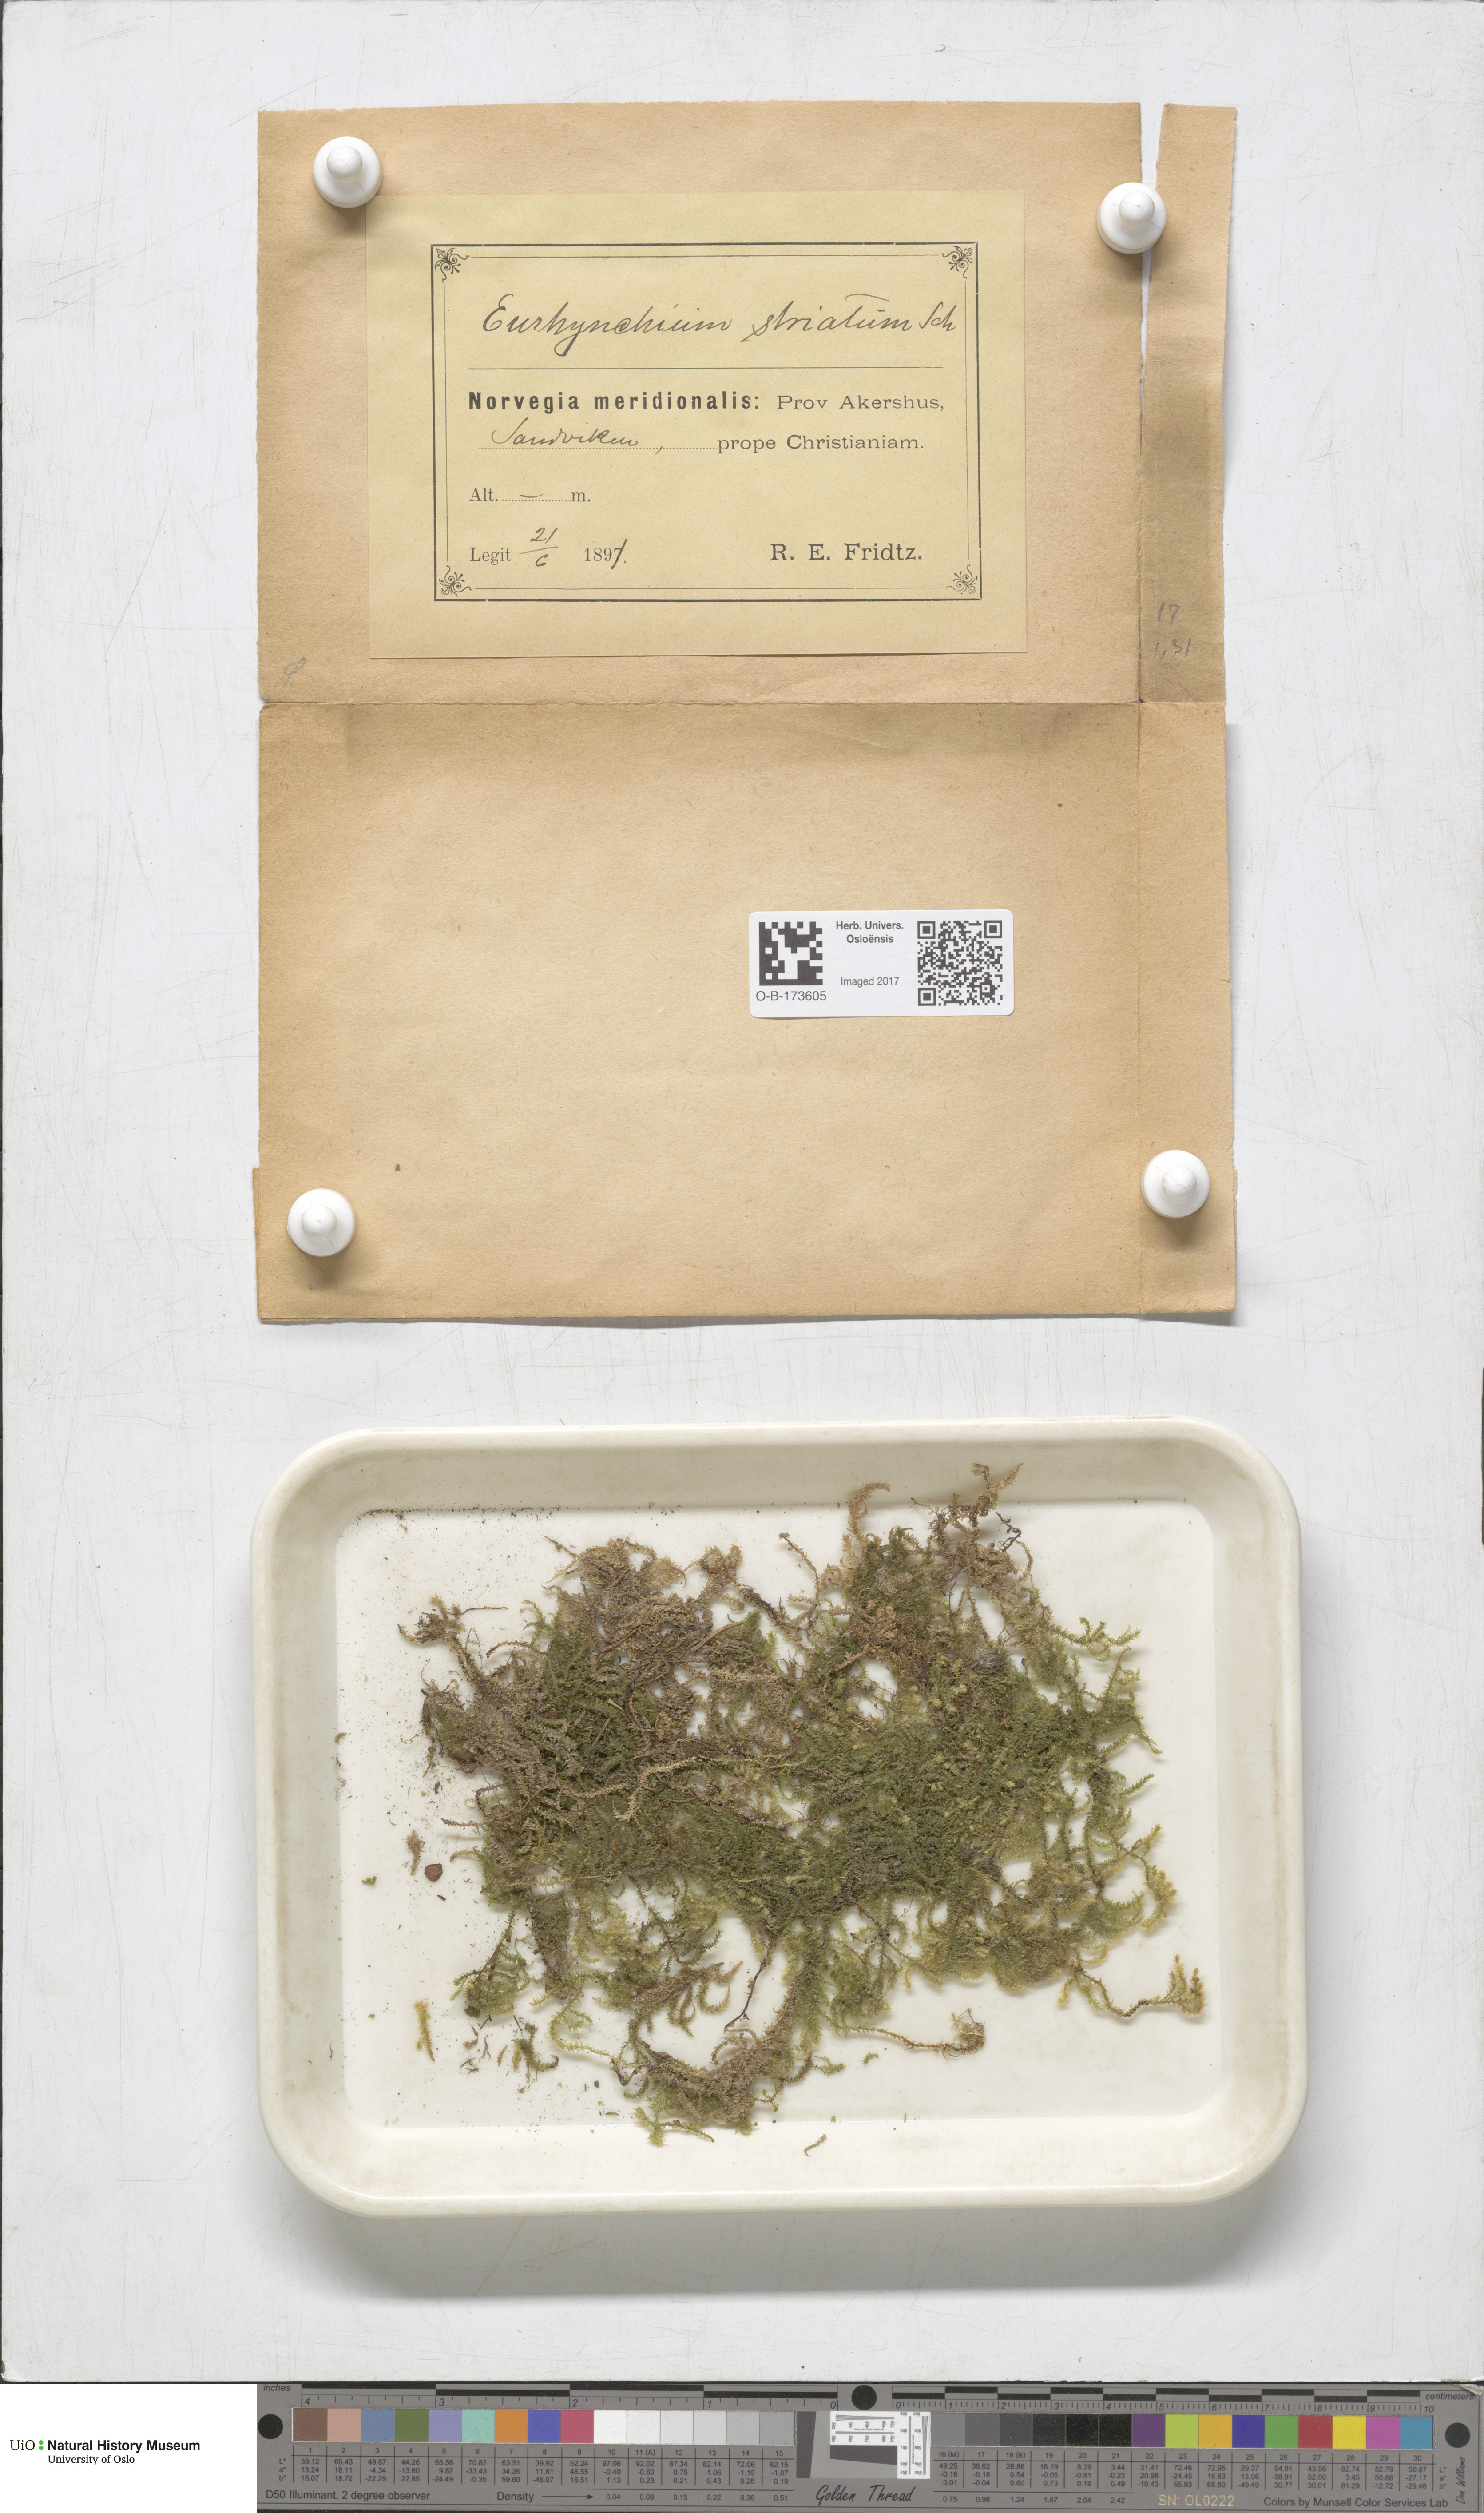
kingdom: Plantae
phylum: Bryophyta
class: Bryopsida
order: Hypnales
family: Brachytheciaceae
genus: Eurhynchium
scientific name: Eurhynchium striatum
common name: Common striated feather-moss
